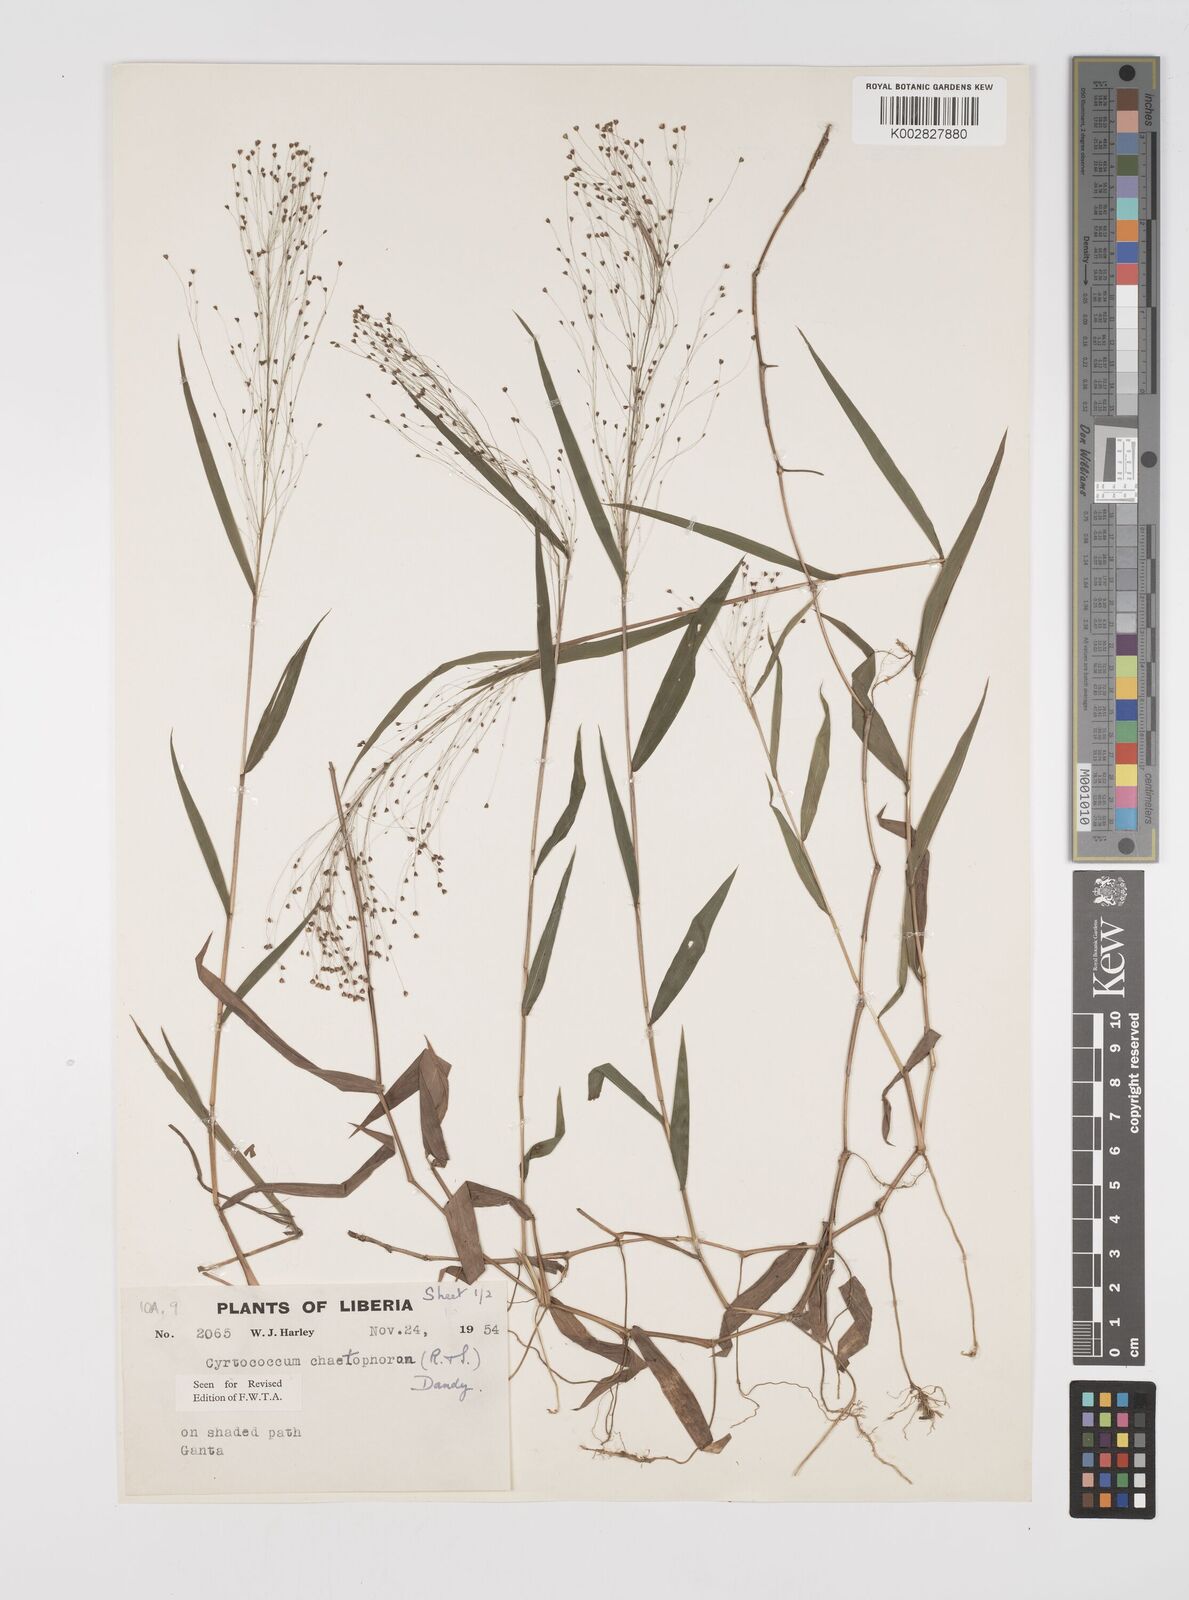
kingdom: Plantae
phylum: Tracheophyta
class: Liliopsida
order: Poales
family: Poaceae
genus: Cyrtococcum
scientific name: Cyrtococcum chaetophoron
